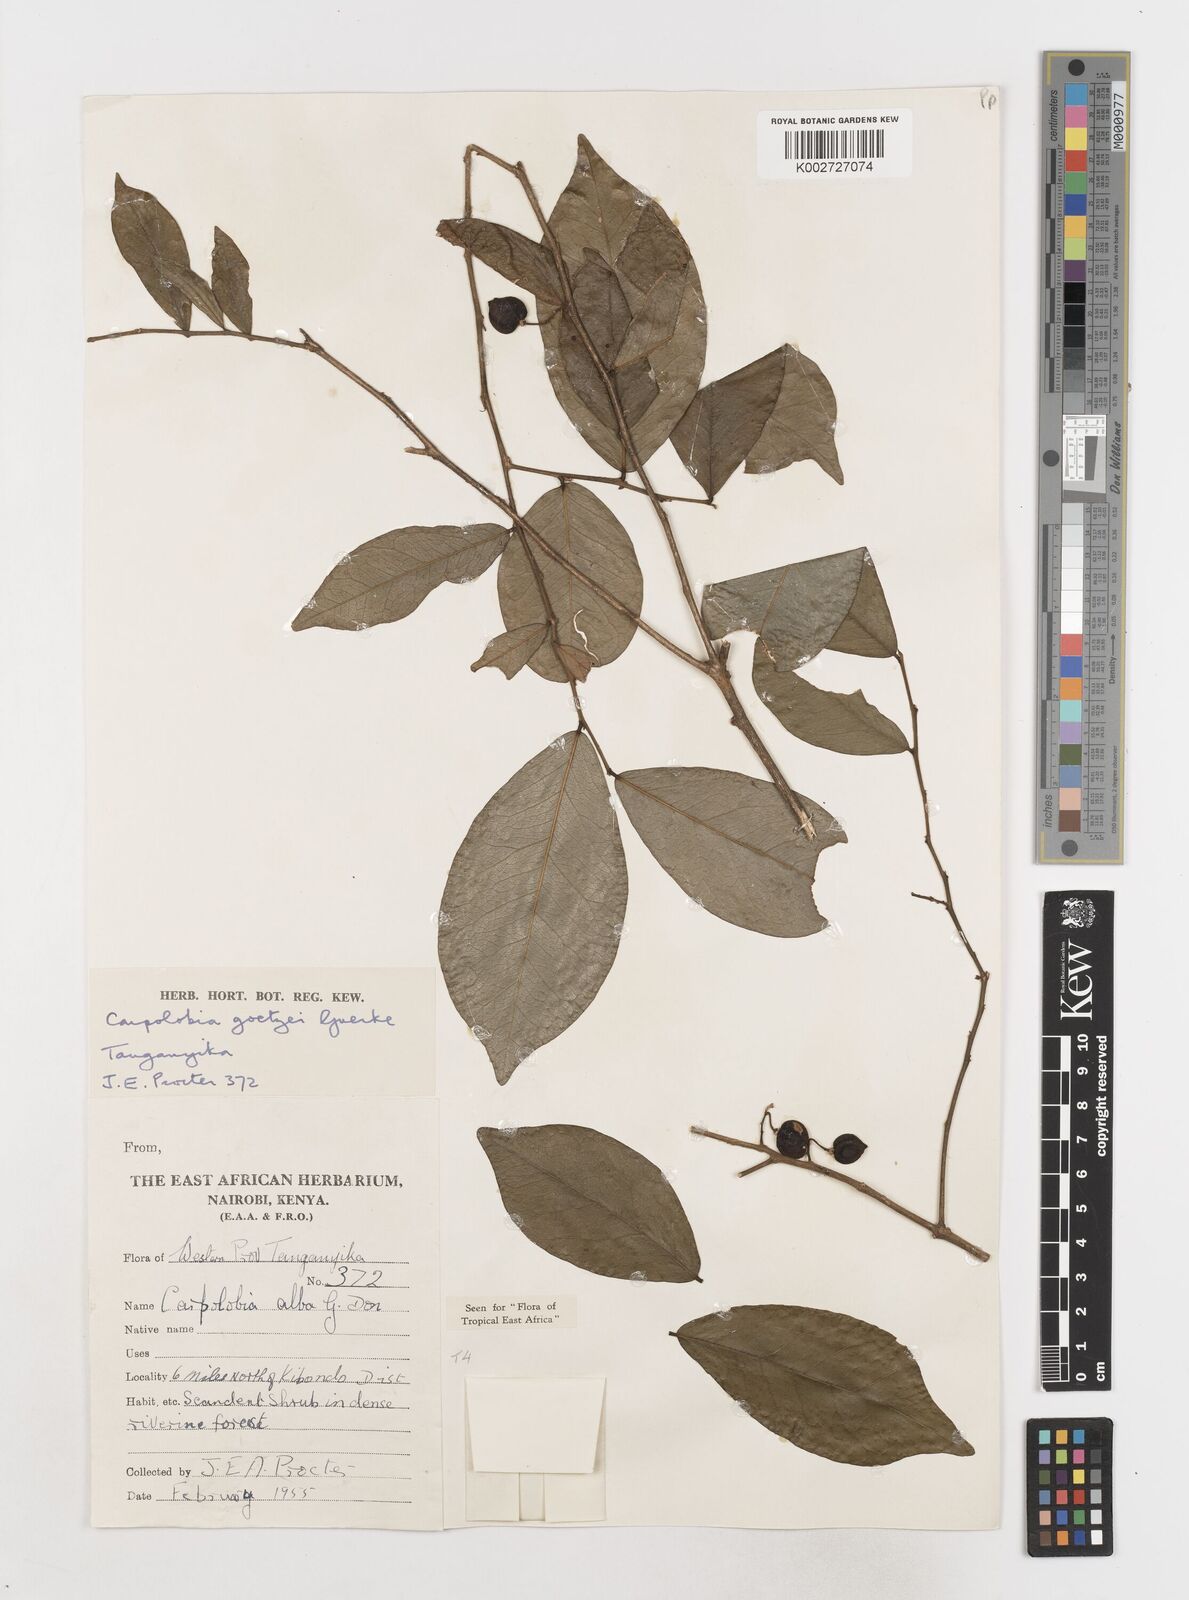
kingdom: Plantae
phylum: Tracheophyta
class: Magnoliopsida
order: Fabales
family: Polygalaceae
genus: Carpolobia
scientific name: Carpolobia goetzei
